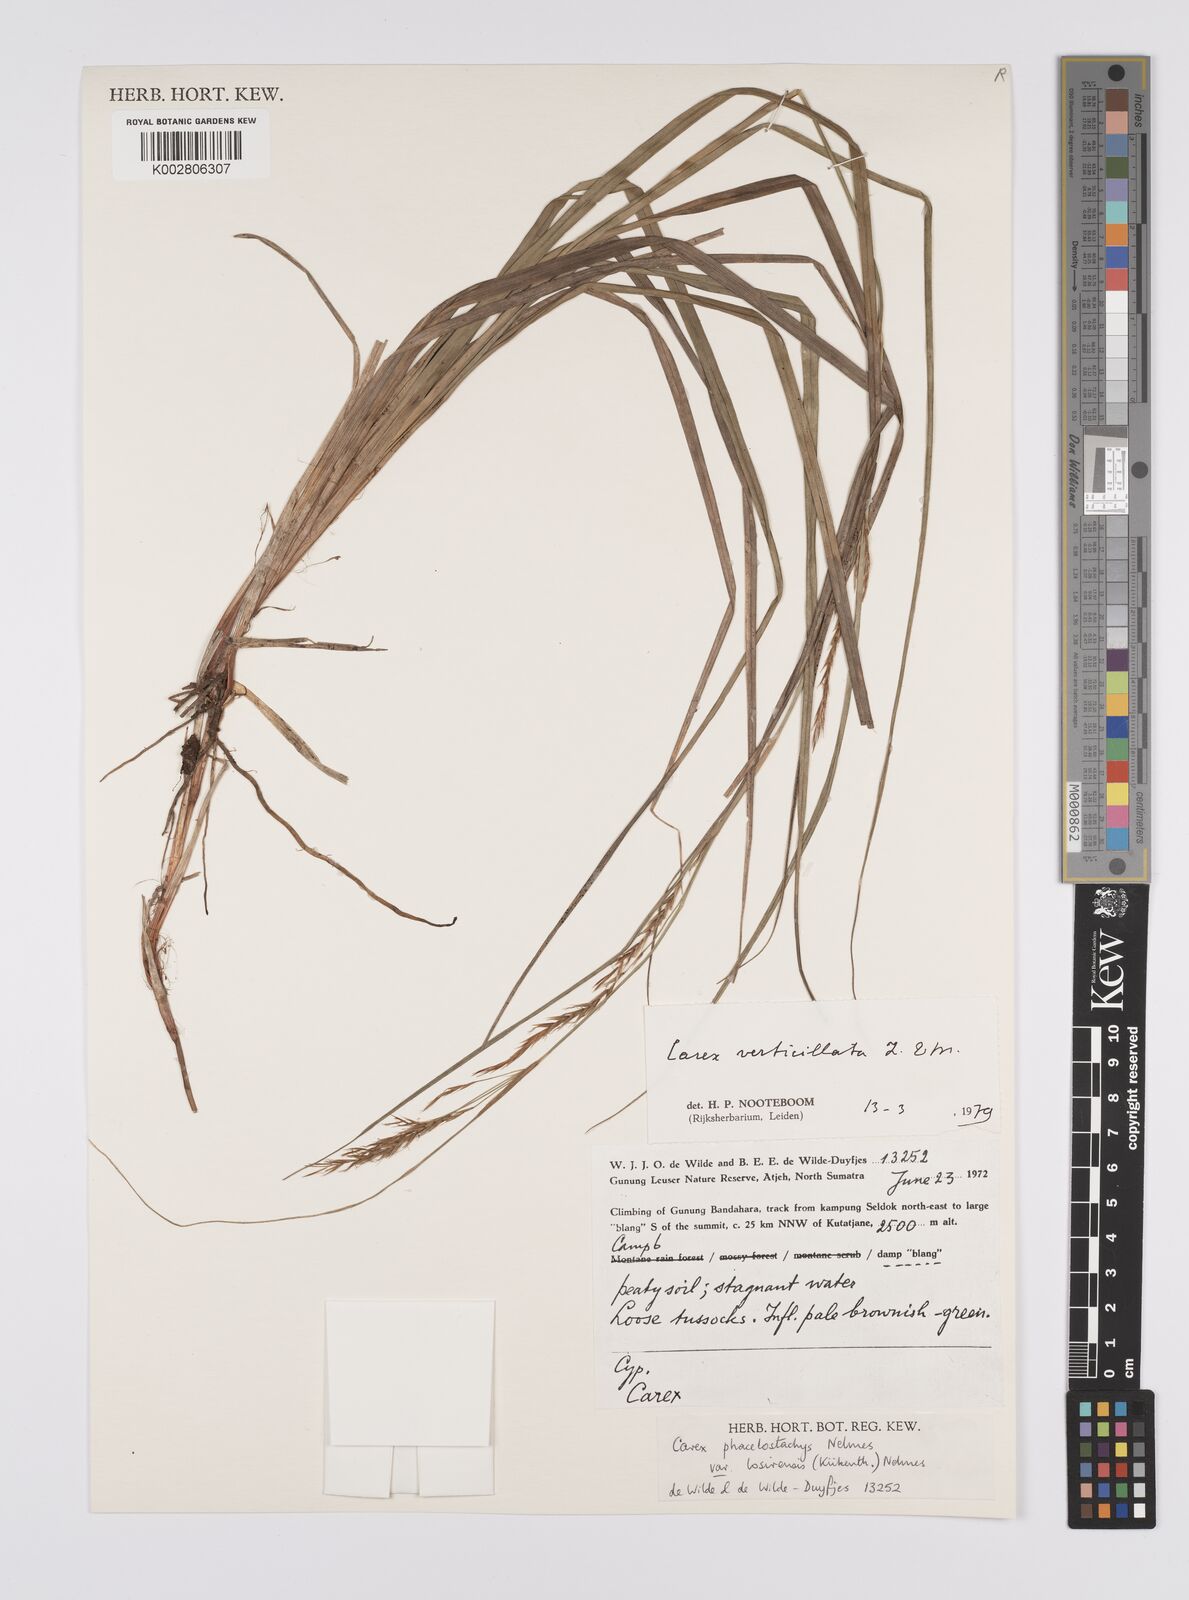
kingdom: Plantae
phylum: Tracheophyta
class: Liliopsida
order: Poales
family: Cyperaceae
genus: Carex
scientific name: Carex verticillata
